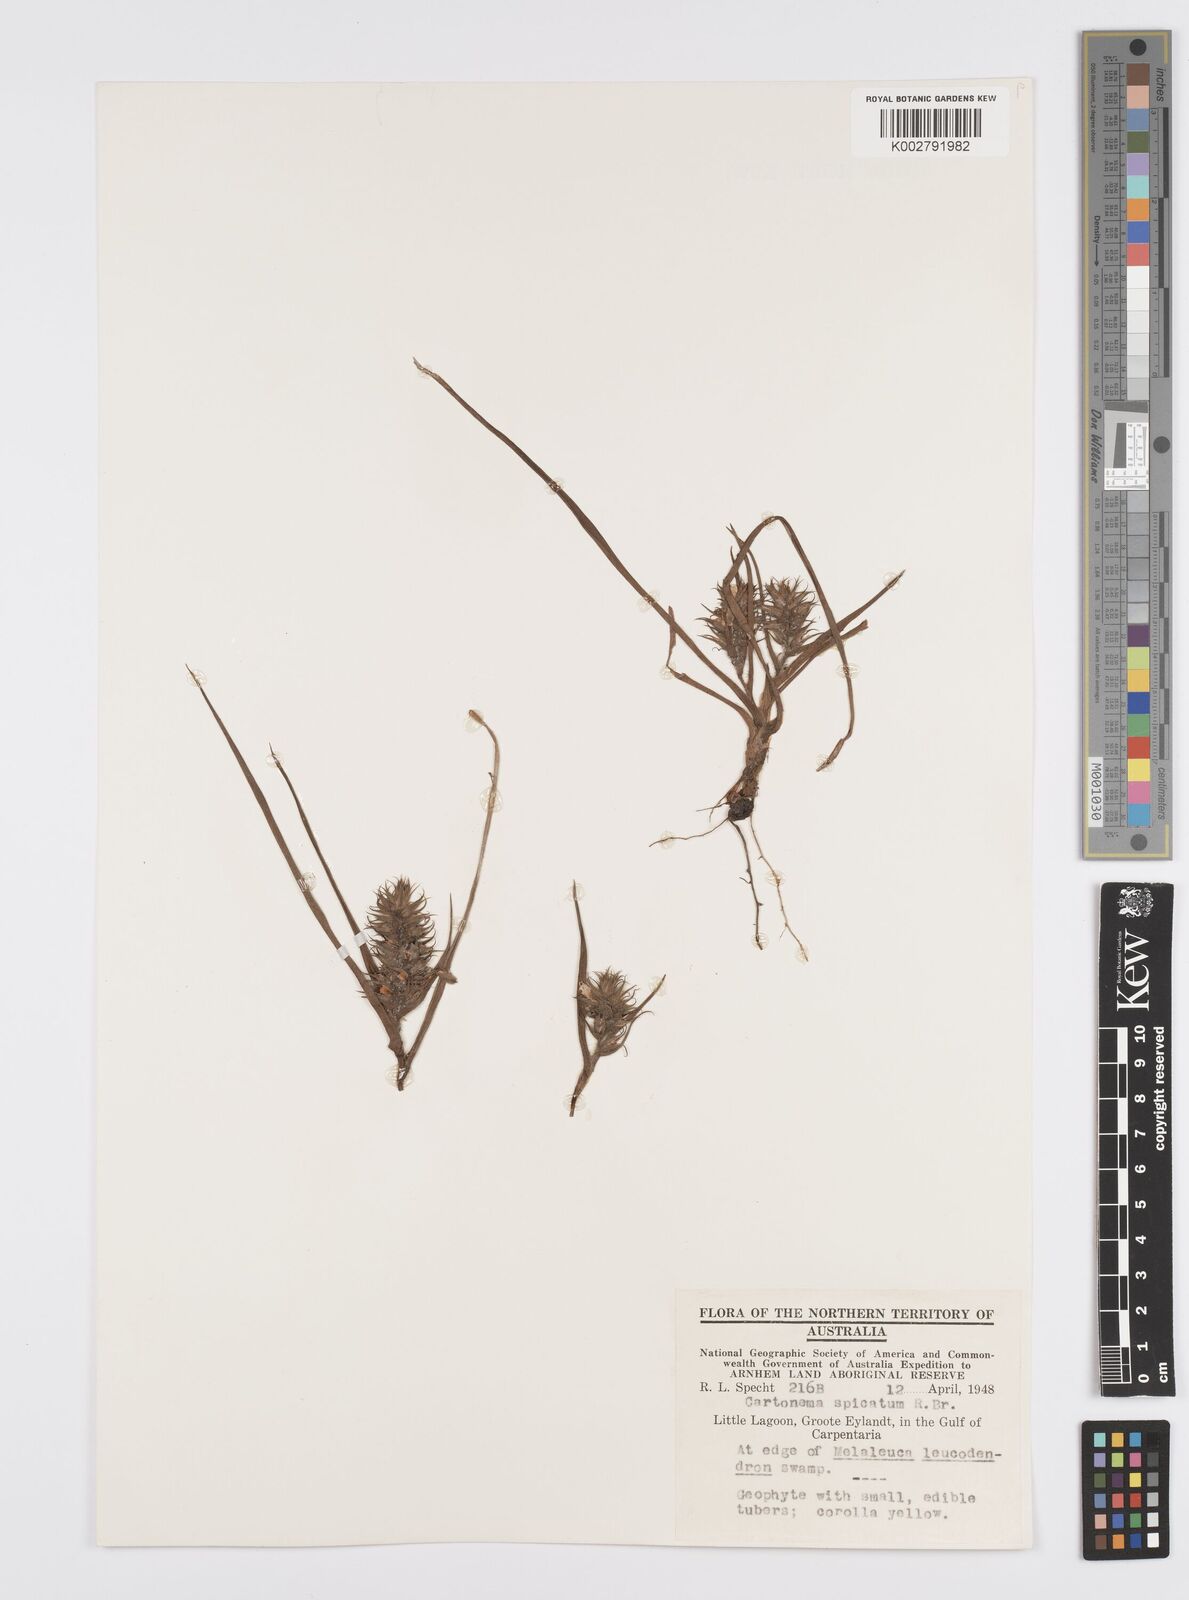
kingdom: Plantae
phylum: Tracheophyta
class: Liliopsida
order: Commelinales
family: Commelinaceae
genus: Cartonema
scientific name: Cartonema spicatum
